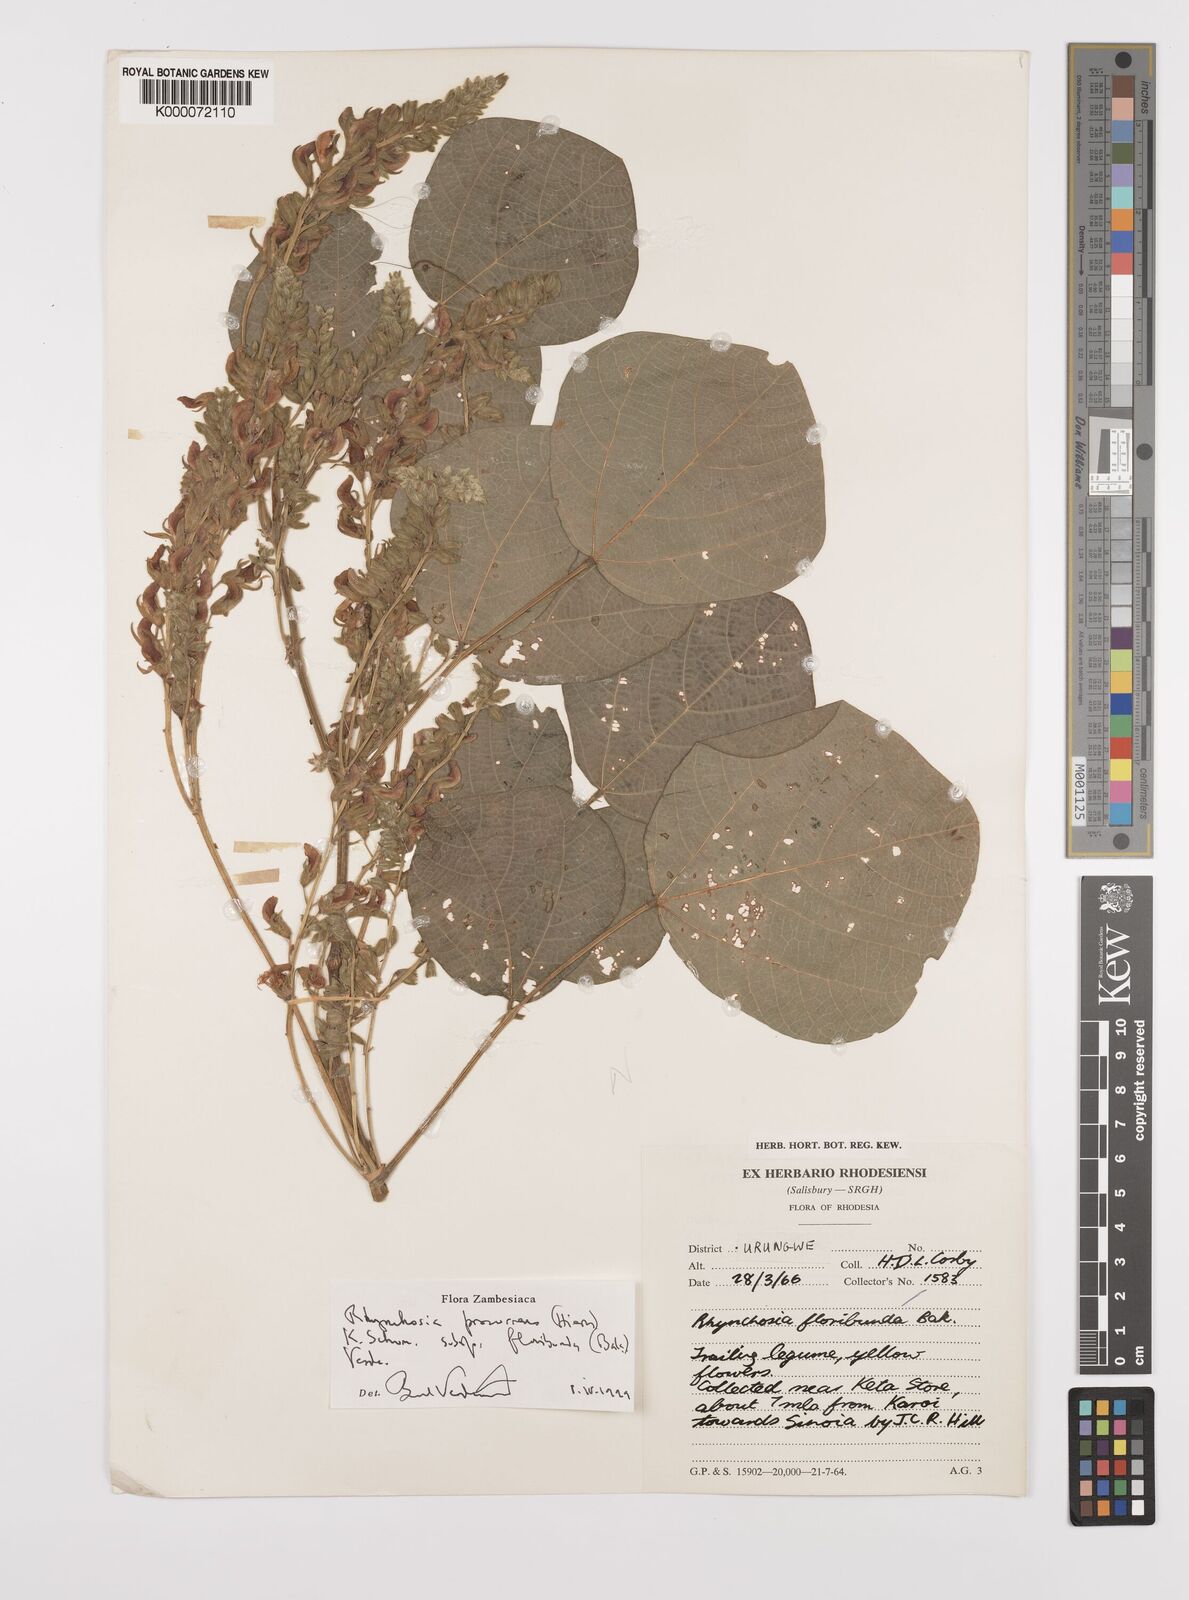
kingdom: Plantae
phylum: Tracheophyta
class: Magnoliopsida
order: Fabales
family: Fabaceae
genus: Rhynchosia
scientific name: Rhynchosia procurrens
